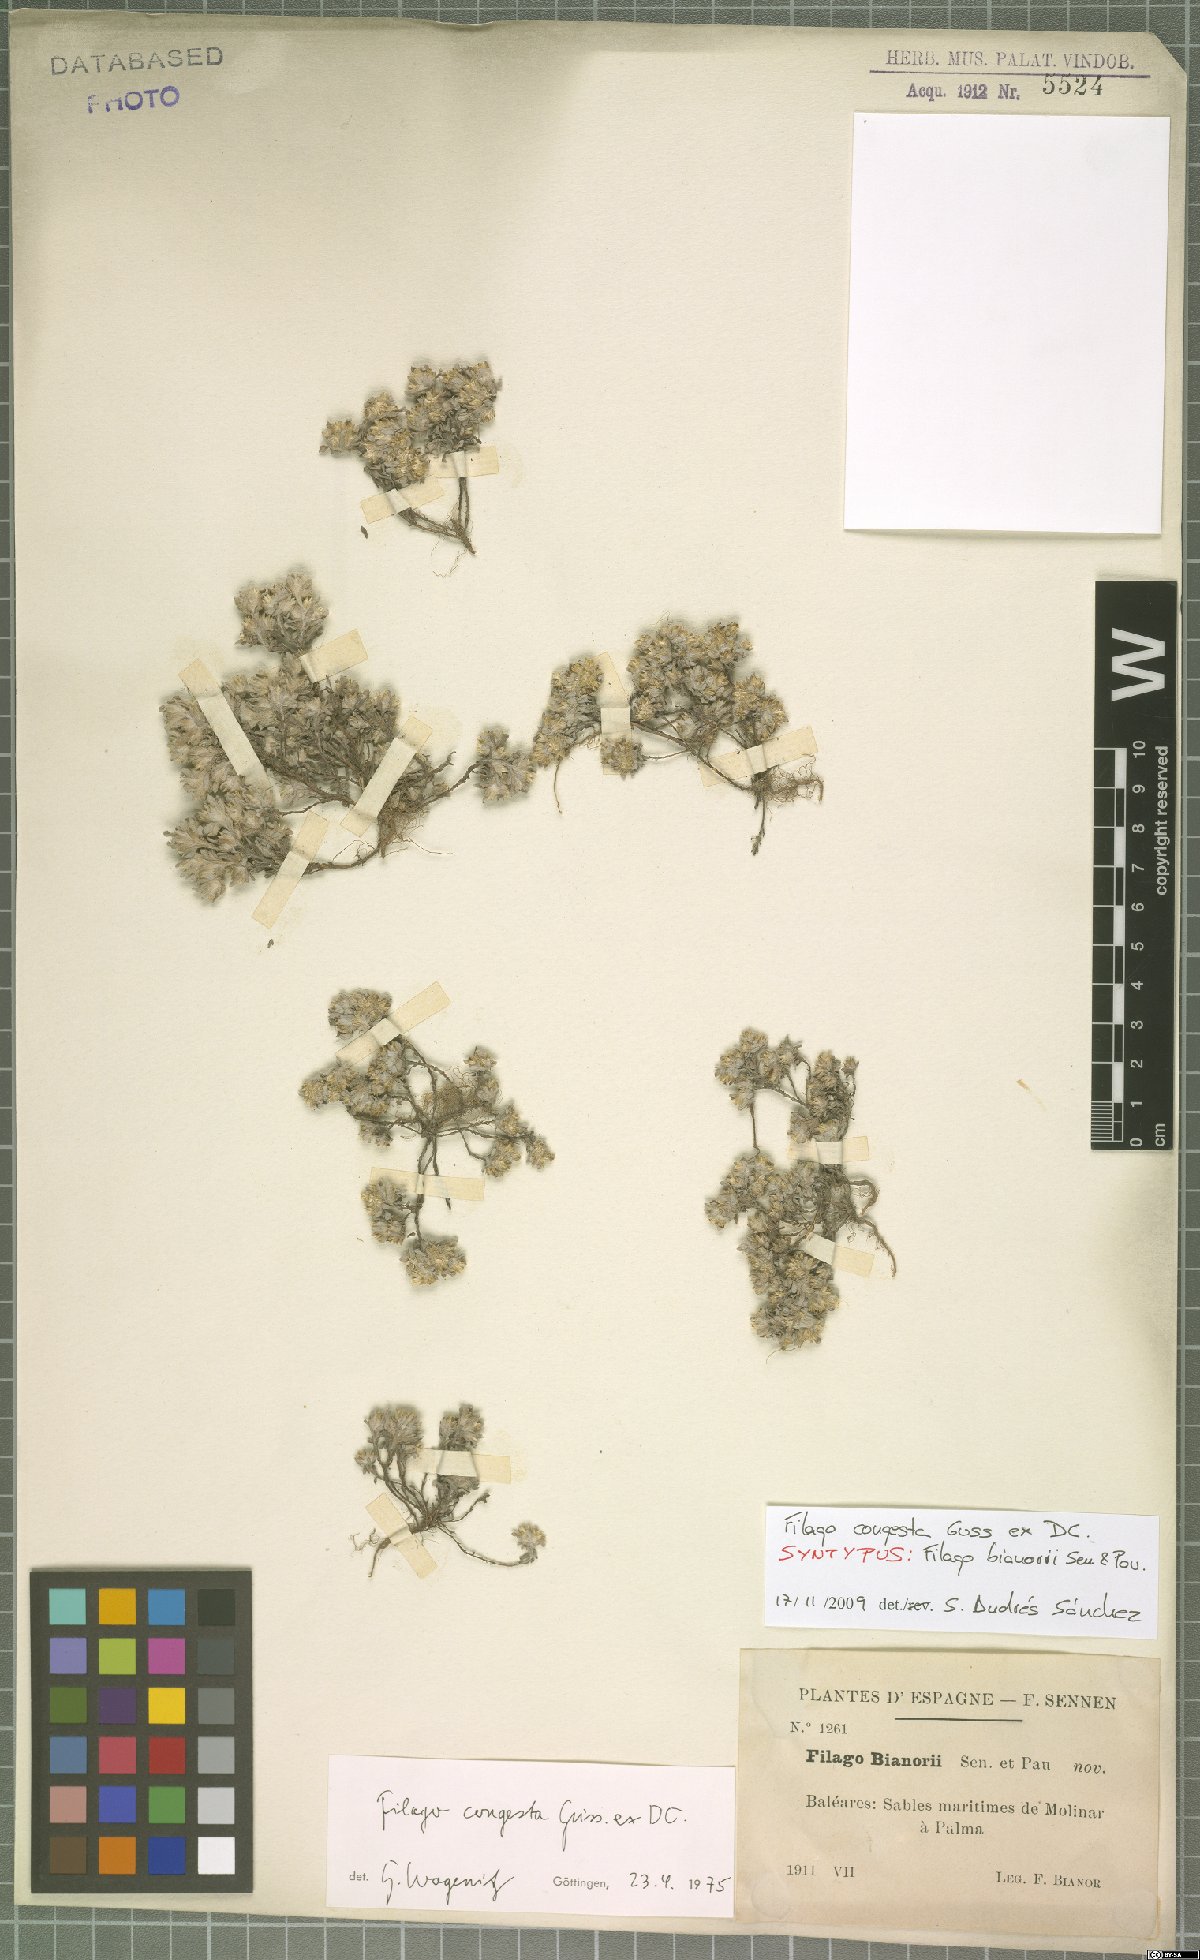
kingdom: Plantae
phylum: Tracheophyta
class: Magnoliopsida
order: Asterales
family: Asteraceae
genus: Filago
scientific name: Filago congesta
